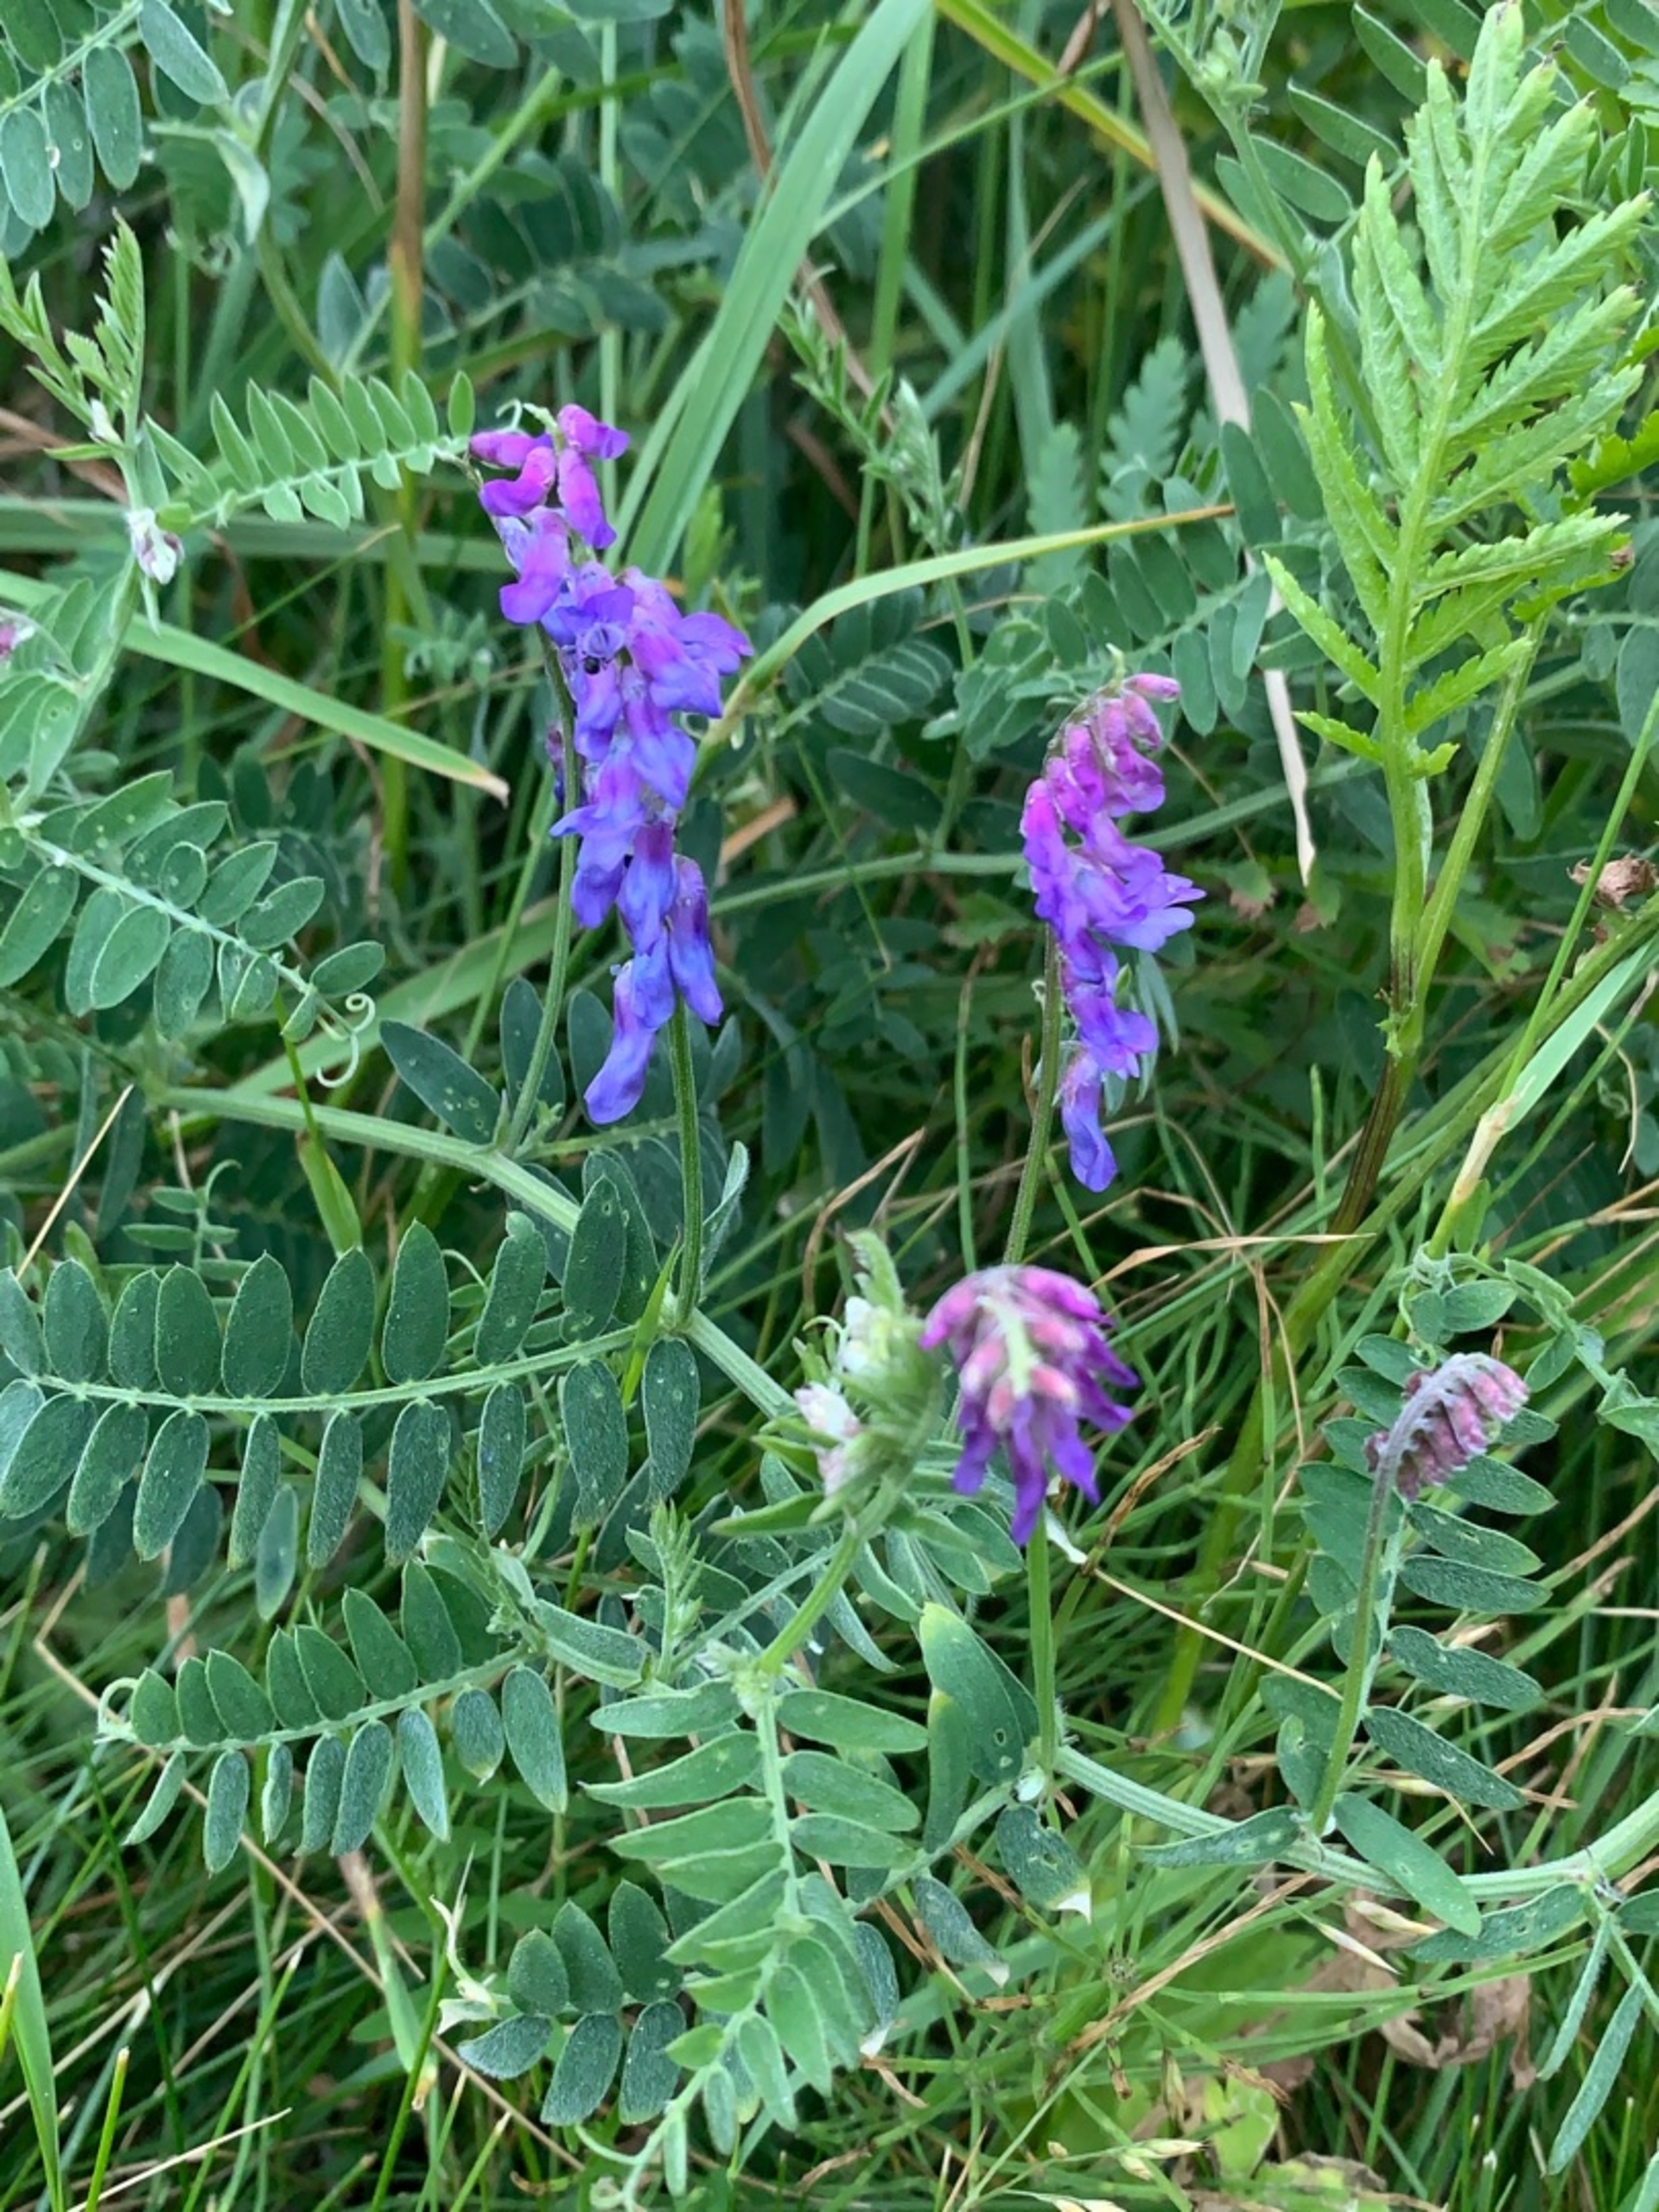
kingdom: Plantae
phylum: Tracheophyta
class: Magnoliopsida
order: Fabales
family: Fabaceae
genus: Vicia
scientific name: Vicia cracca
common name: Muse-vikke
